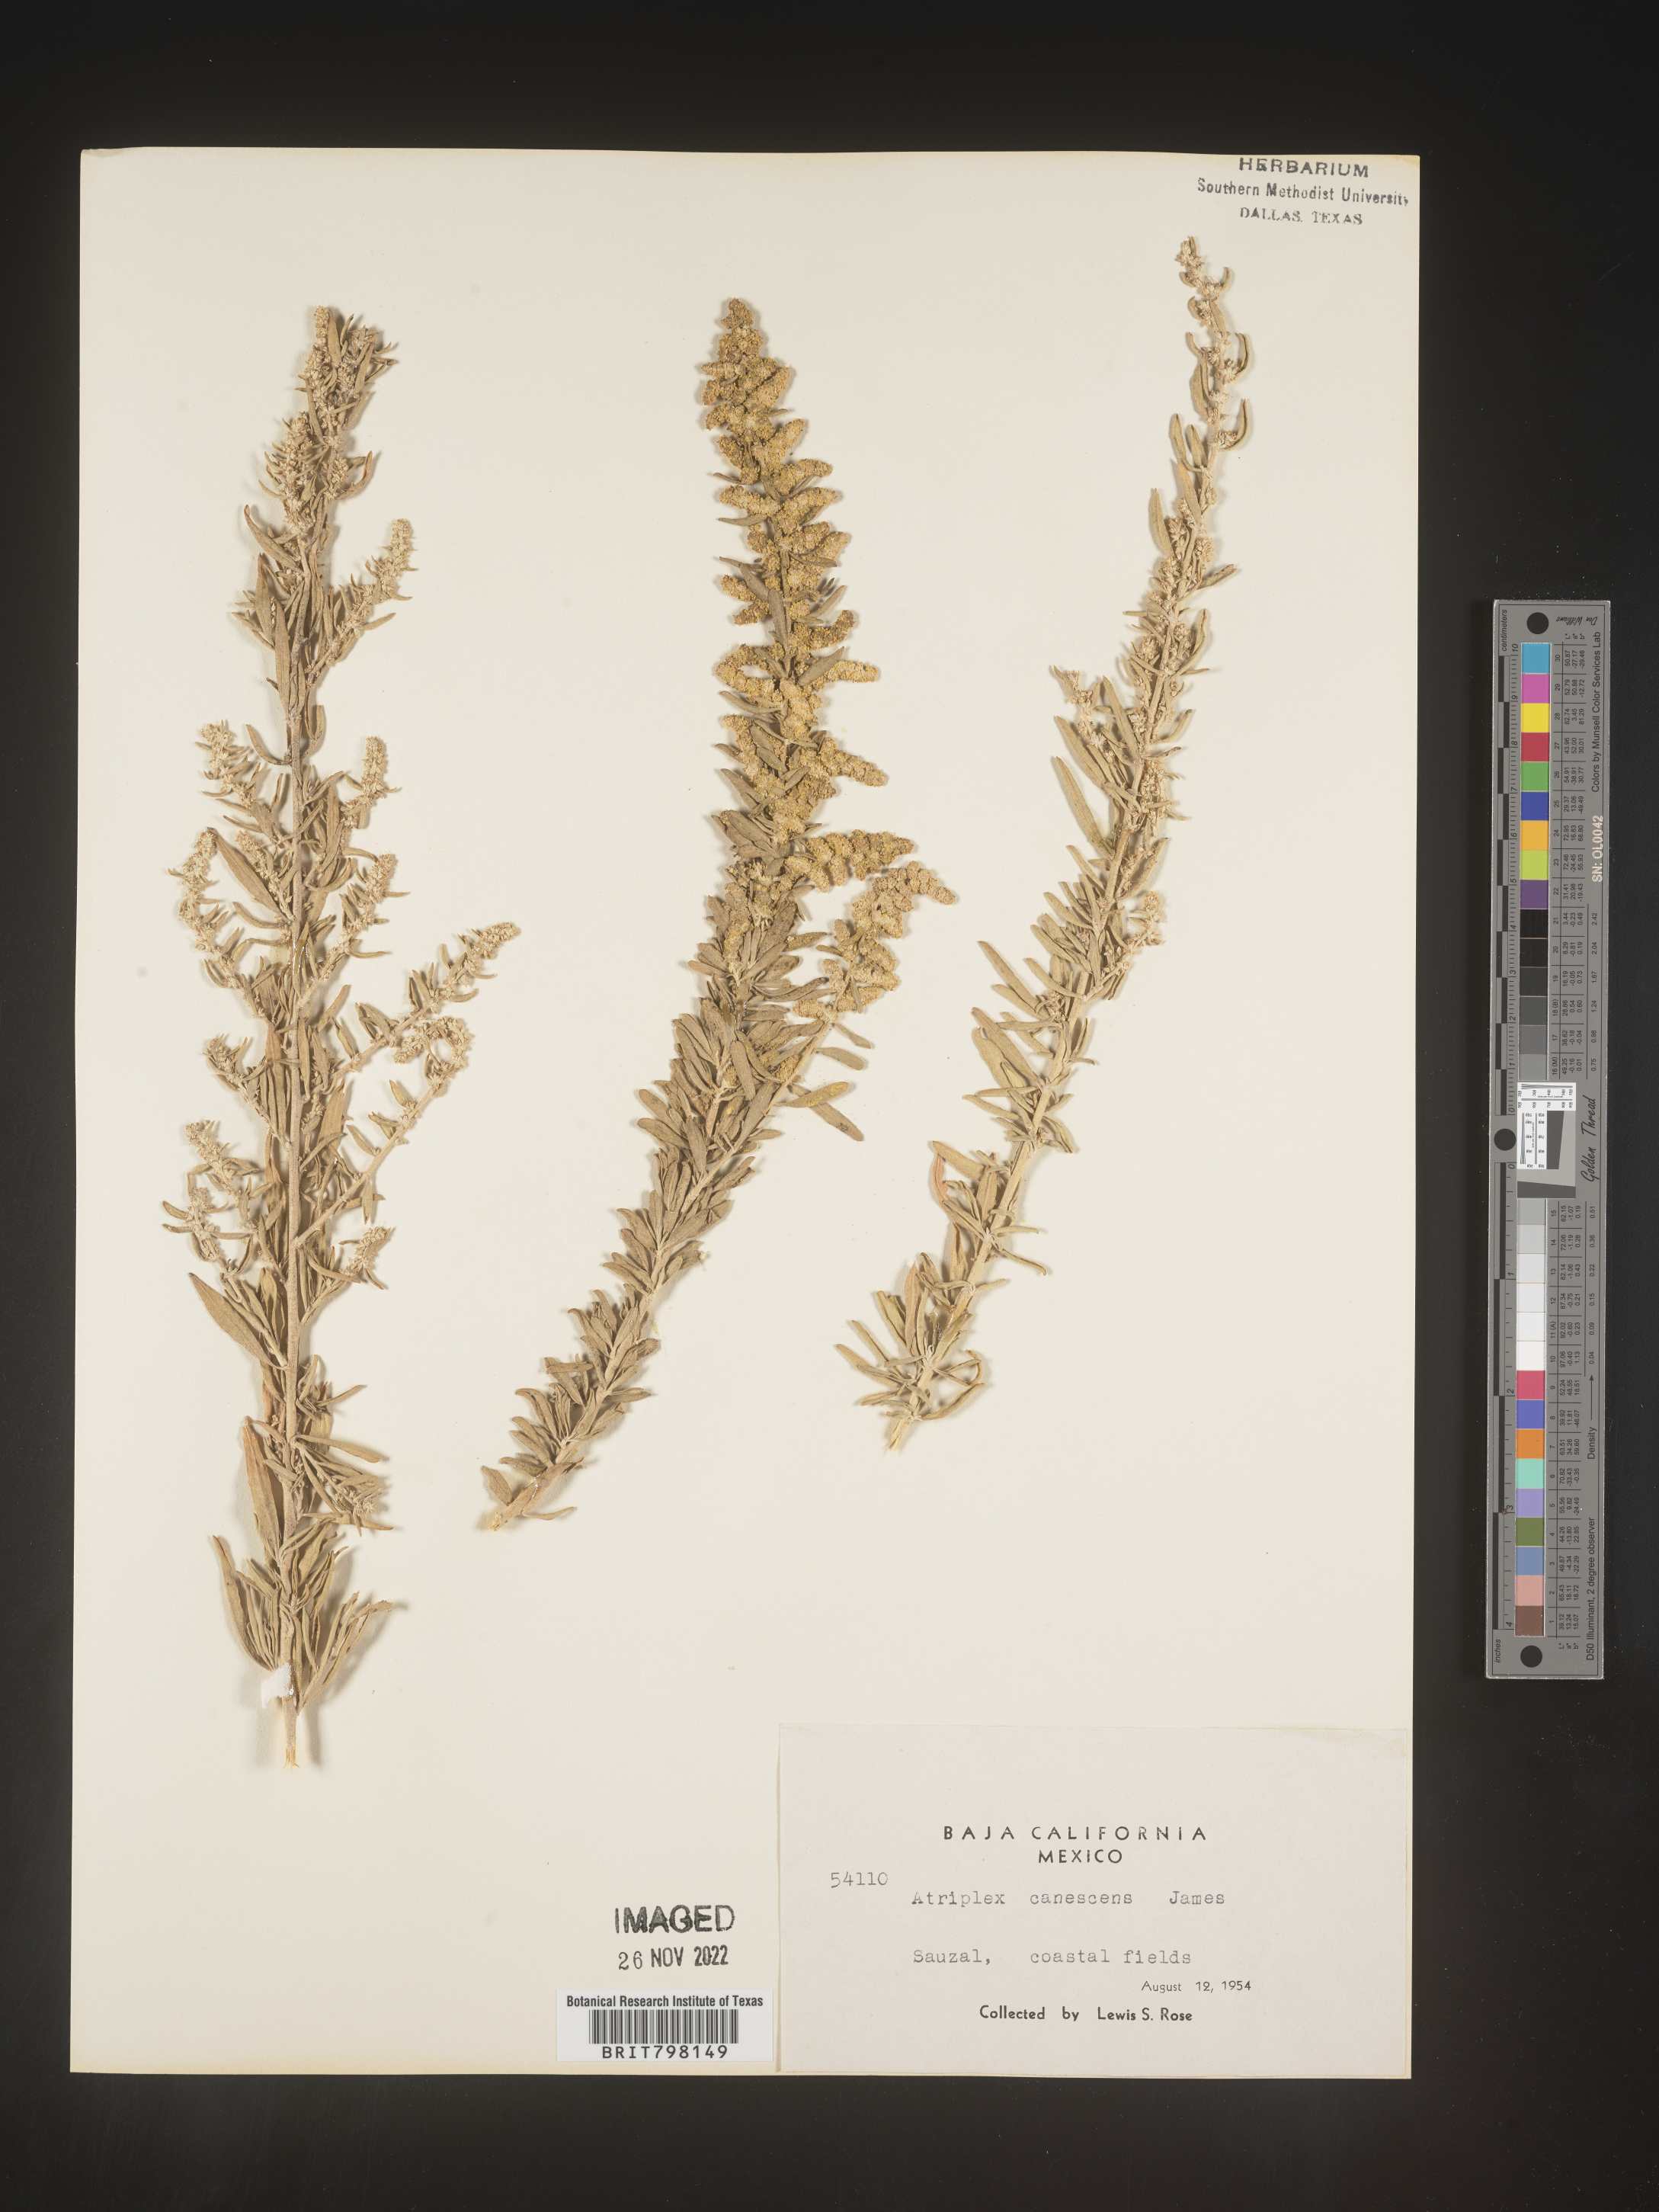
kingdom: Plantae
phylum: Tracheophyta
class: Magnoliopsida
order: Caryophyllales
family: Amaranthaceae
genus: Atriplex
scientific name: Atriplex canescens
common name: Four-wing saltbush
